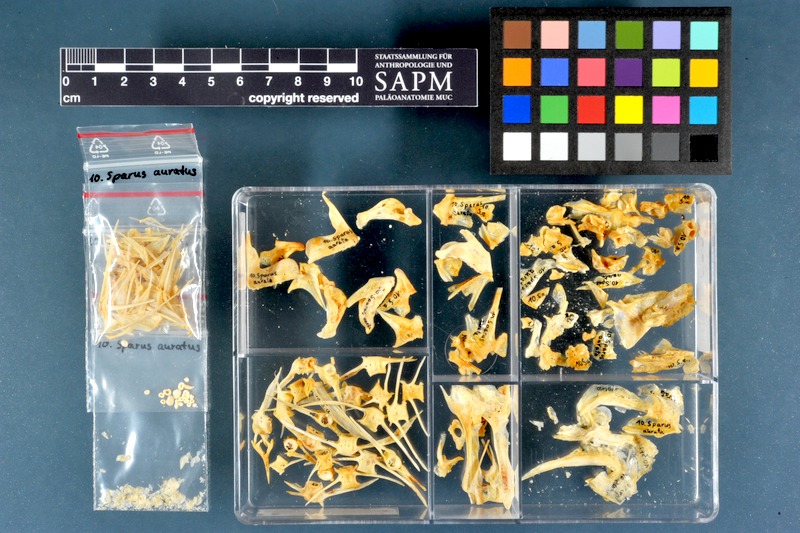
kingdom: Animalia
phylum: Chordata
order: Perciformes
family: Sparidae
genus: Sparus
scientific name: Sparus aurata
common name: Gilthead
